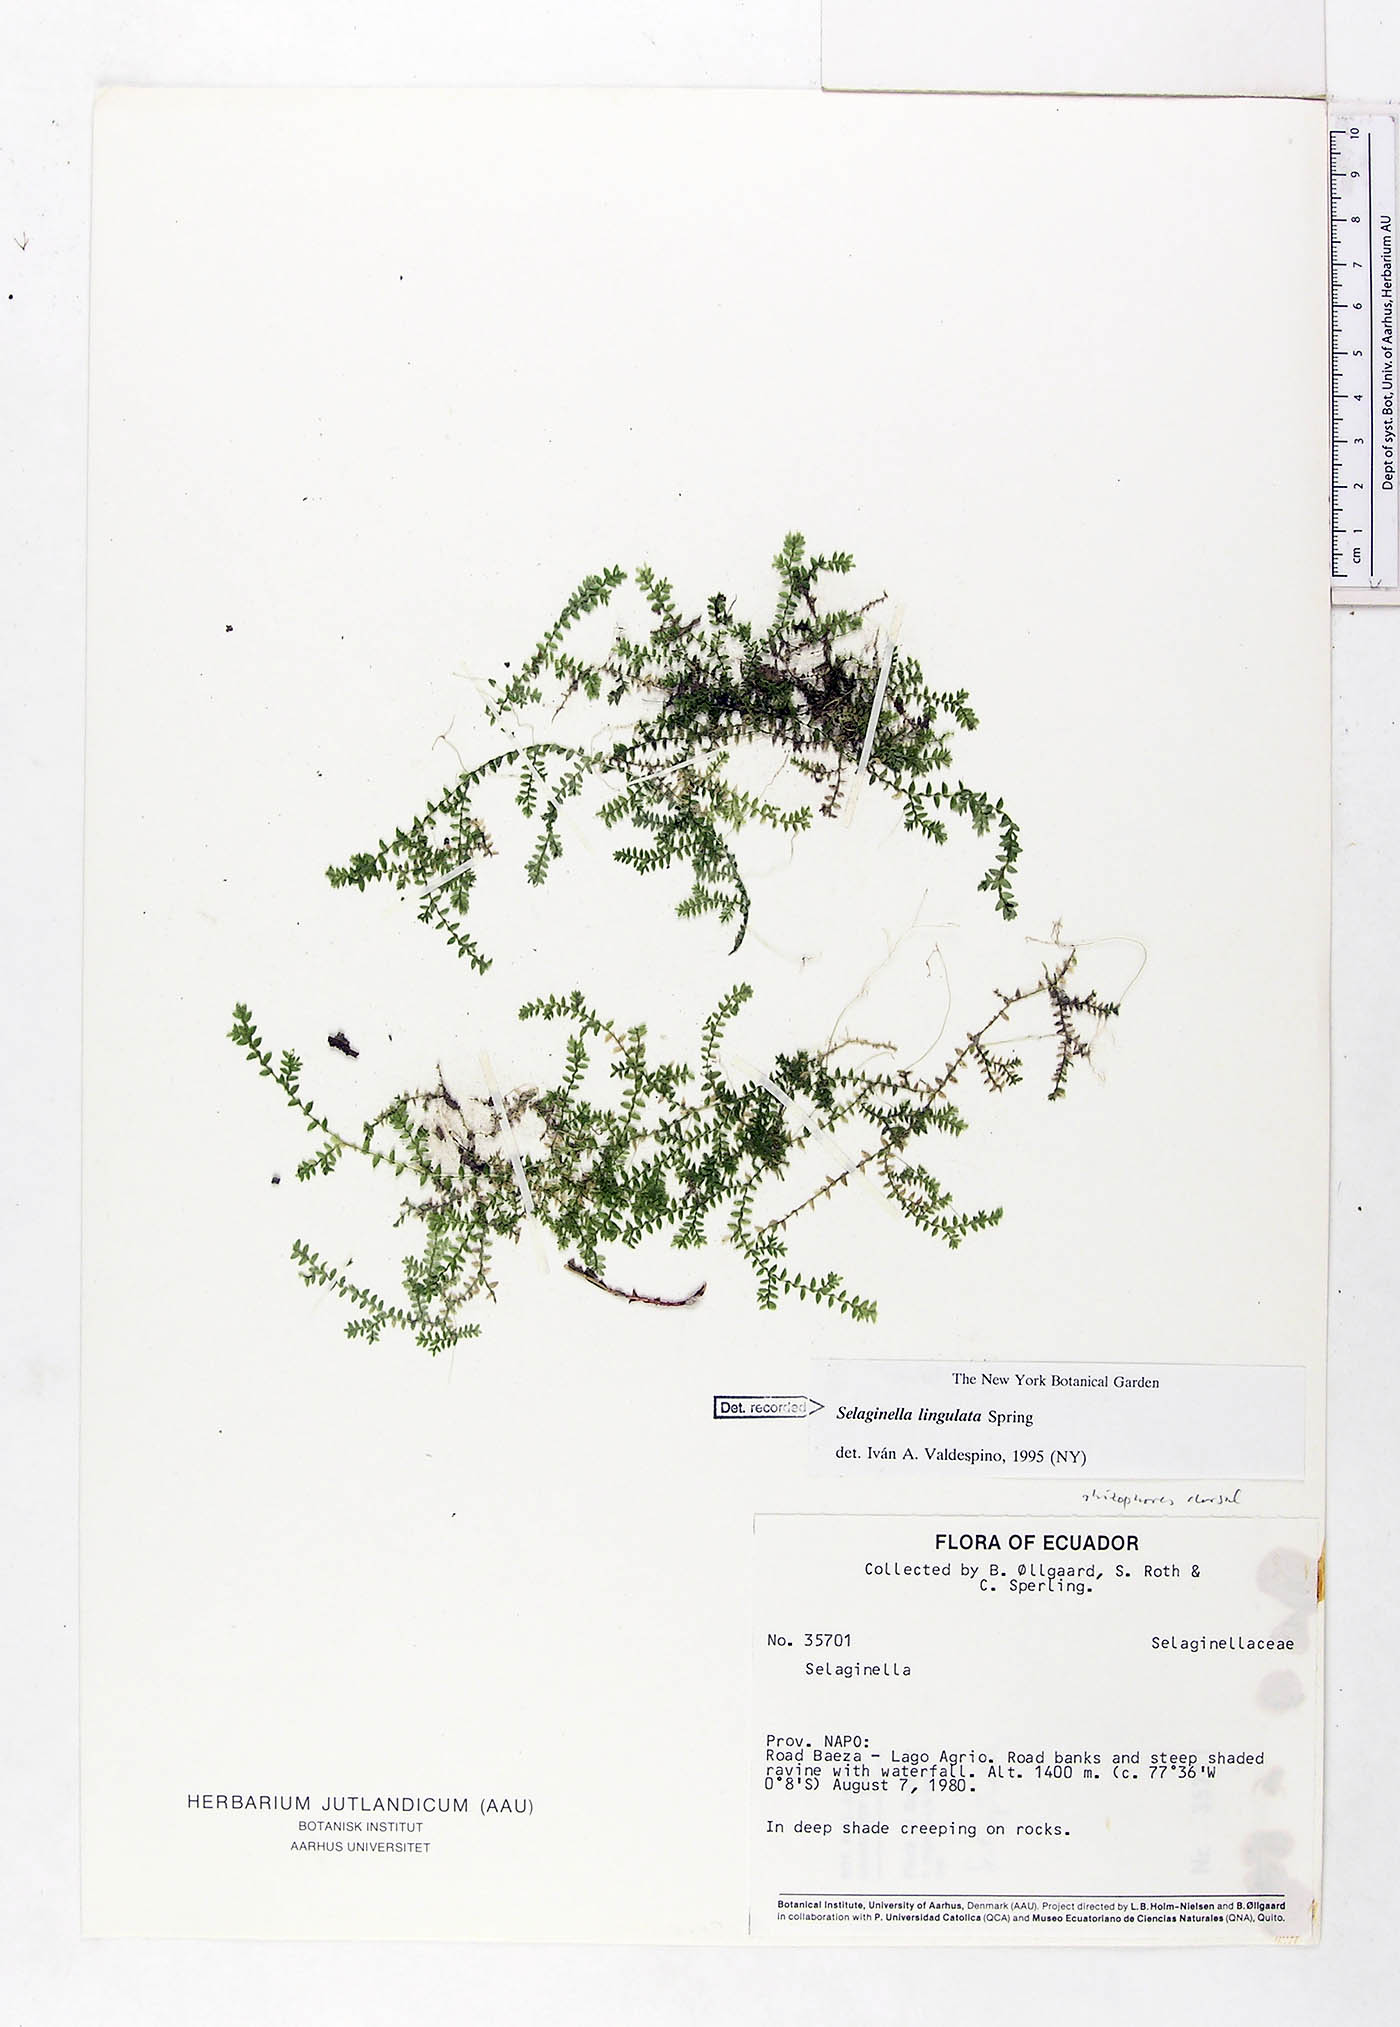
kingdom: Plantae
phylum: Tracheophyta
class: Lycopodiopsida
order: Selaginellales
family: Selaginellaceae
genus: Selaginella
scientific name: Selaginella lingulata
